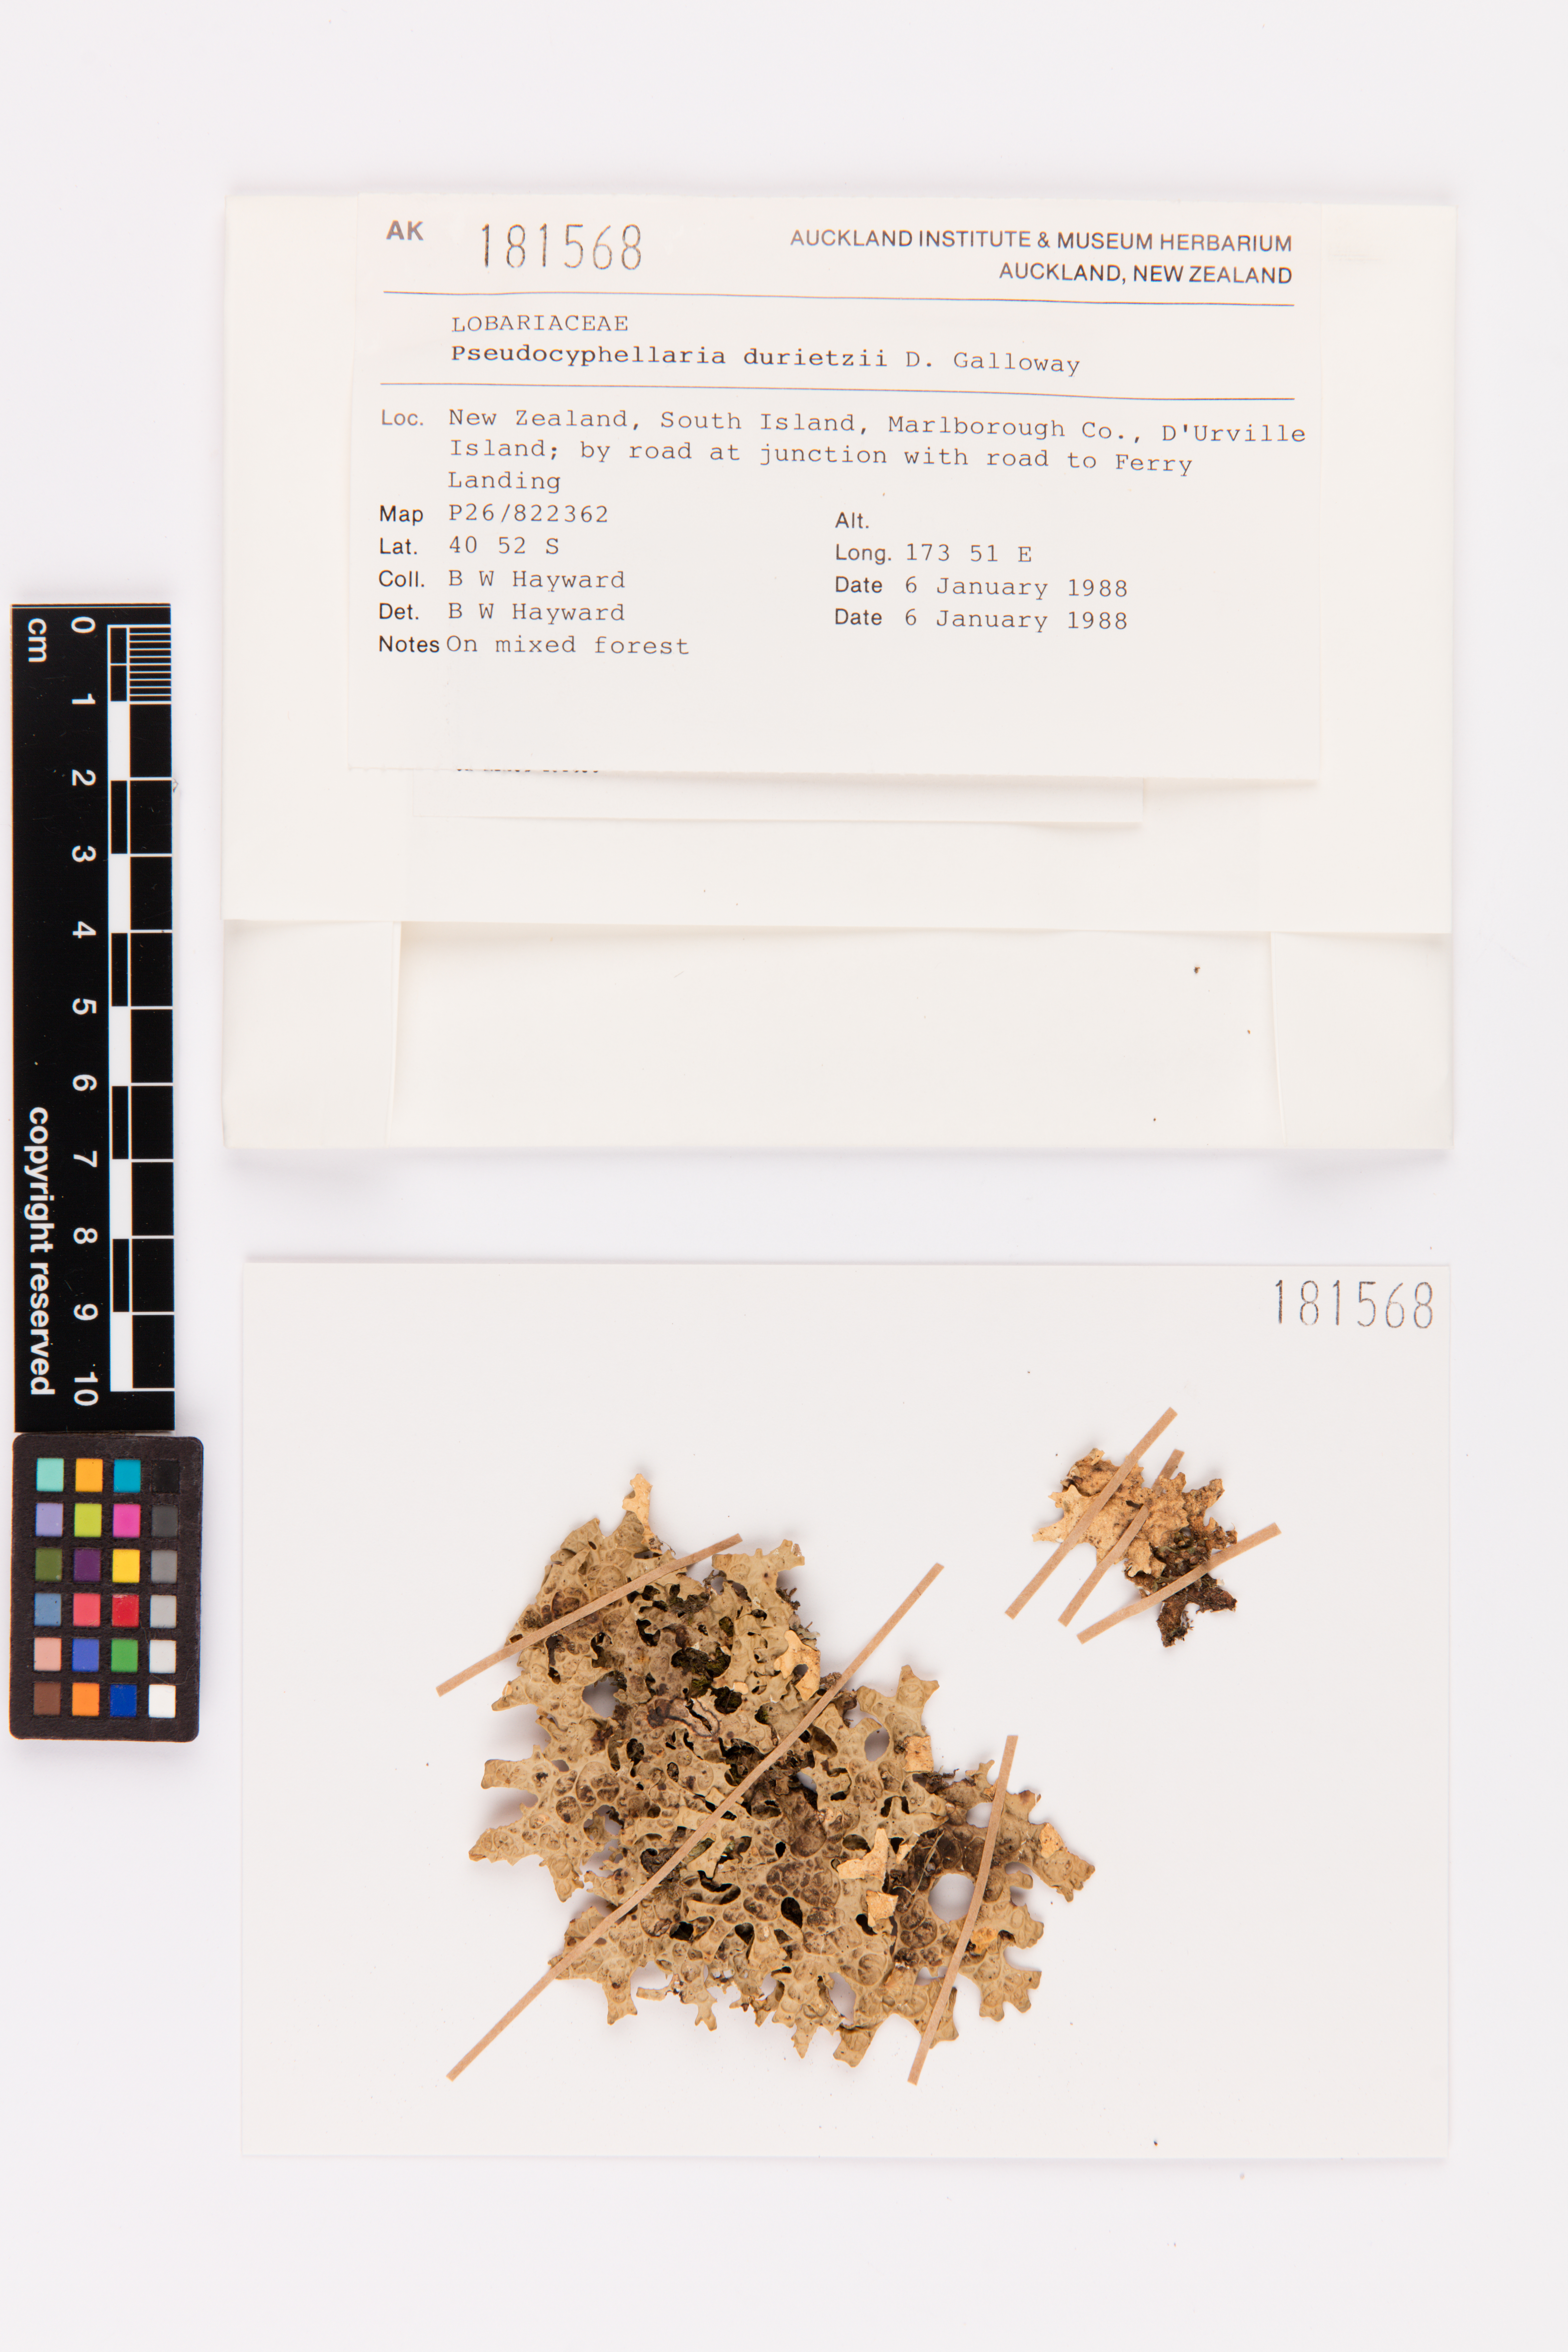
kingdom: Fungi
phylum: Ascomycota
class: Lecanoromycetes
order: Peltigerales
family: Lobariaceae
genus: Pseudocyphellaria
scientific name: Pseudocyphellaria durietzii
